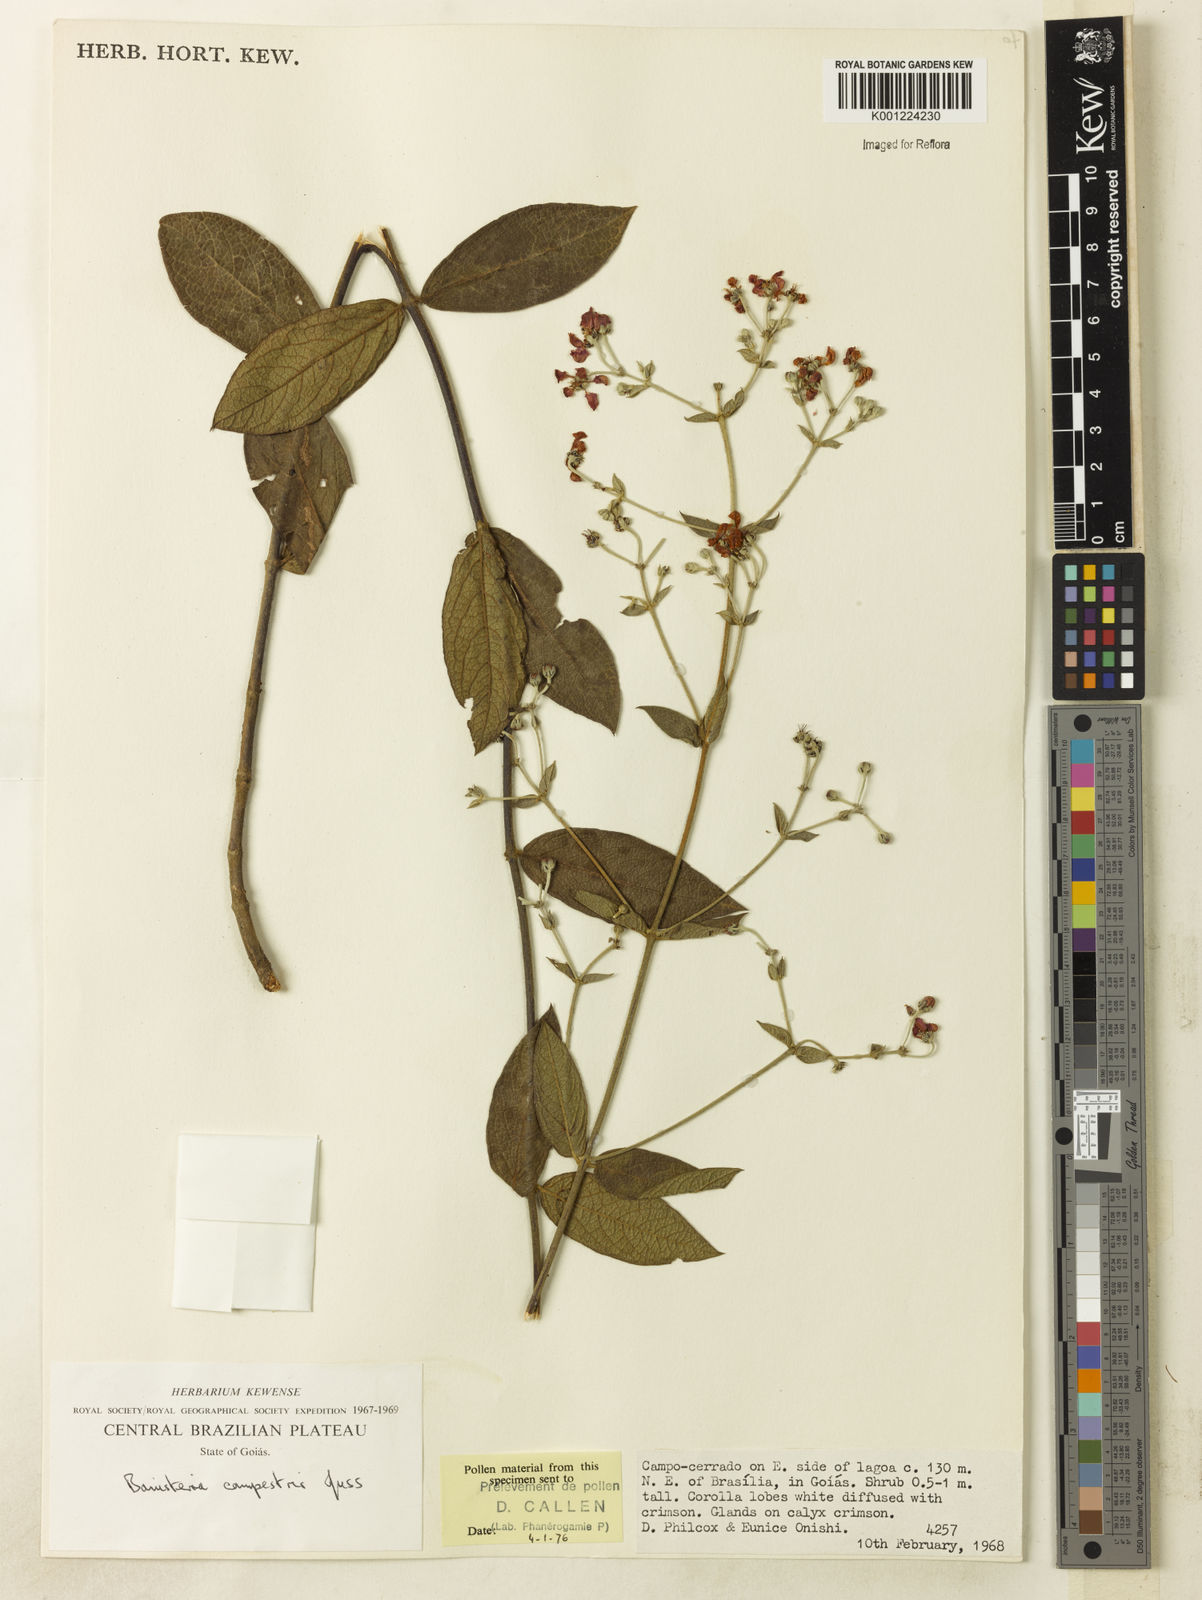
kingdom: Plantae
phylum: Tracheophyta
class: Magnoliopsida
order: Malpighiales
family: Malpighiaceae
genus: Banisteriopsis
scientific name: Banisteriopsis campestris
